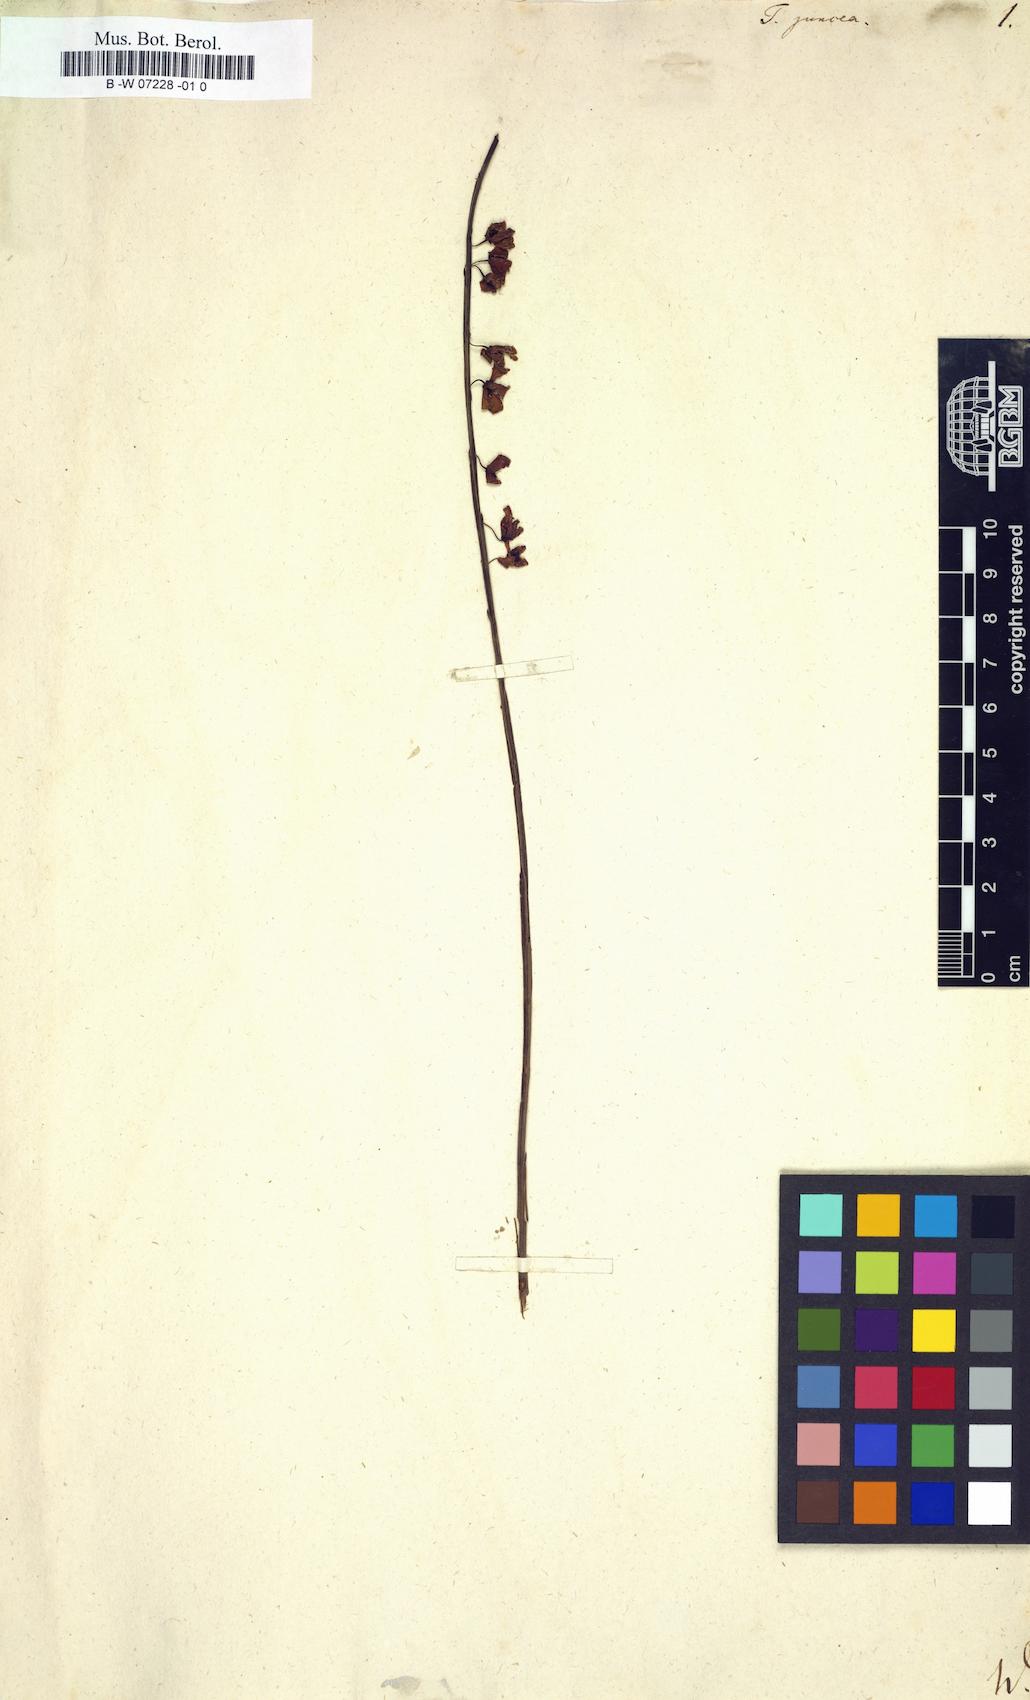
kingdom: Plantae
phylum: Tracheophyta
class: Magnoliopsida
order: Oxalidales
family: Elaeocarpaceae
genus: Tetratheca
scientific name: Tetratheca juncea
